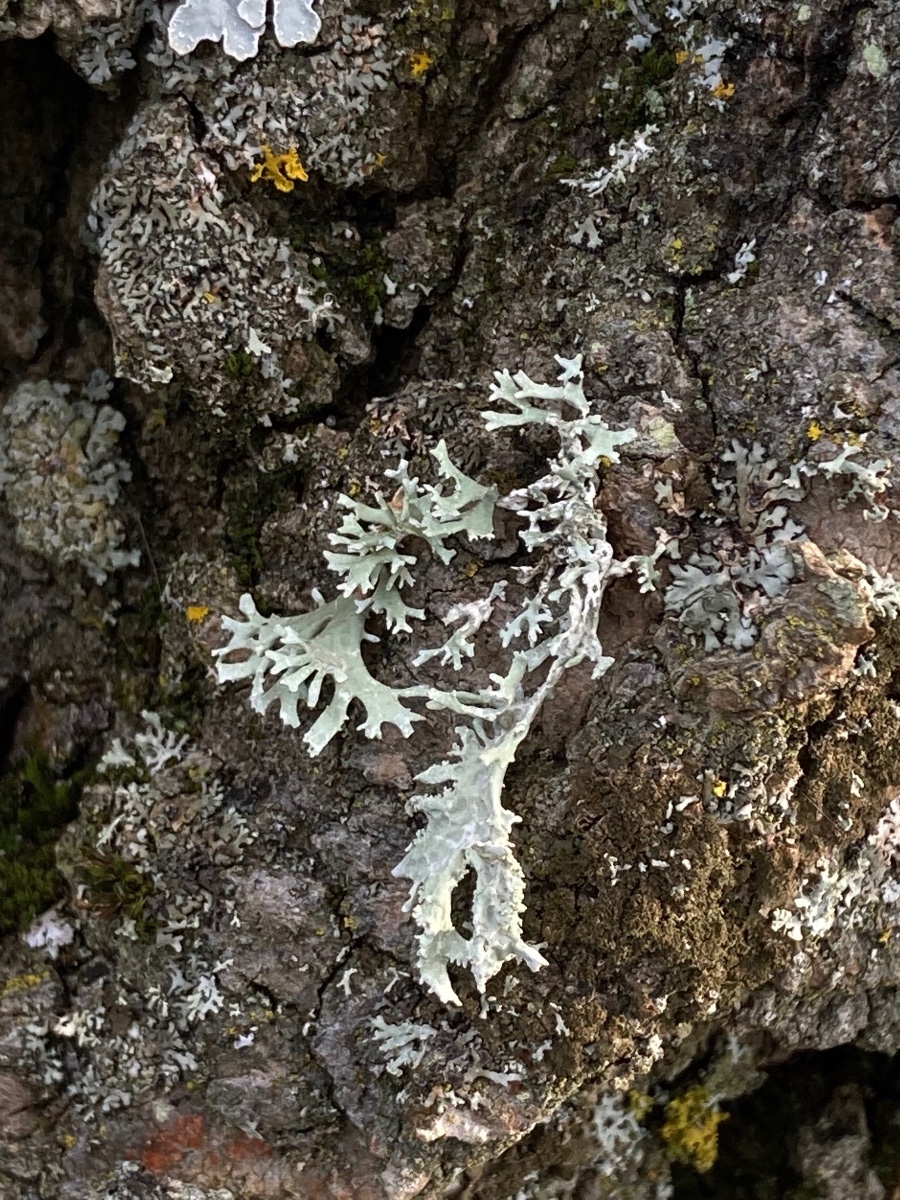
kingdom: Fungi
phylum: Ascomycota
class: Lecanoromycetes
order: Lecanorales
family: Parmeliaceae
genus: Evernia
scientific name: Evernia prunastri
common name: almindelig slåenlav
